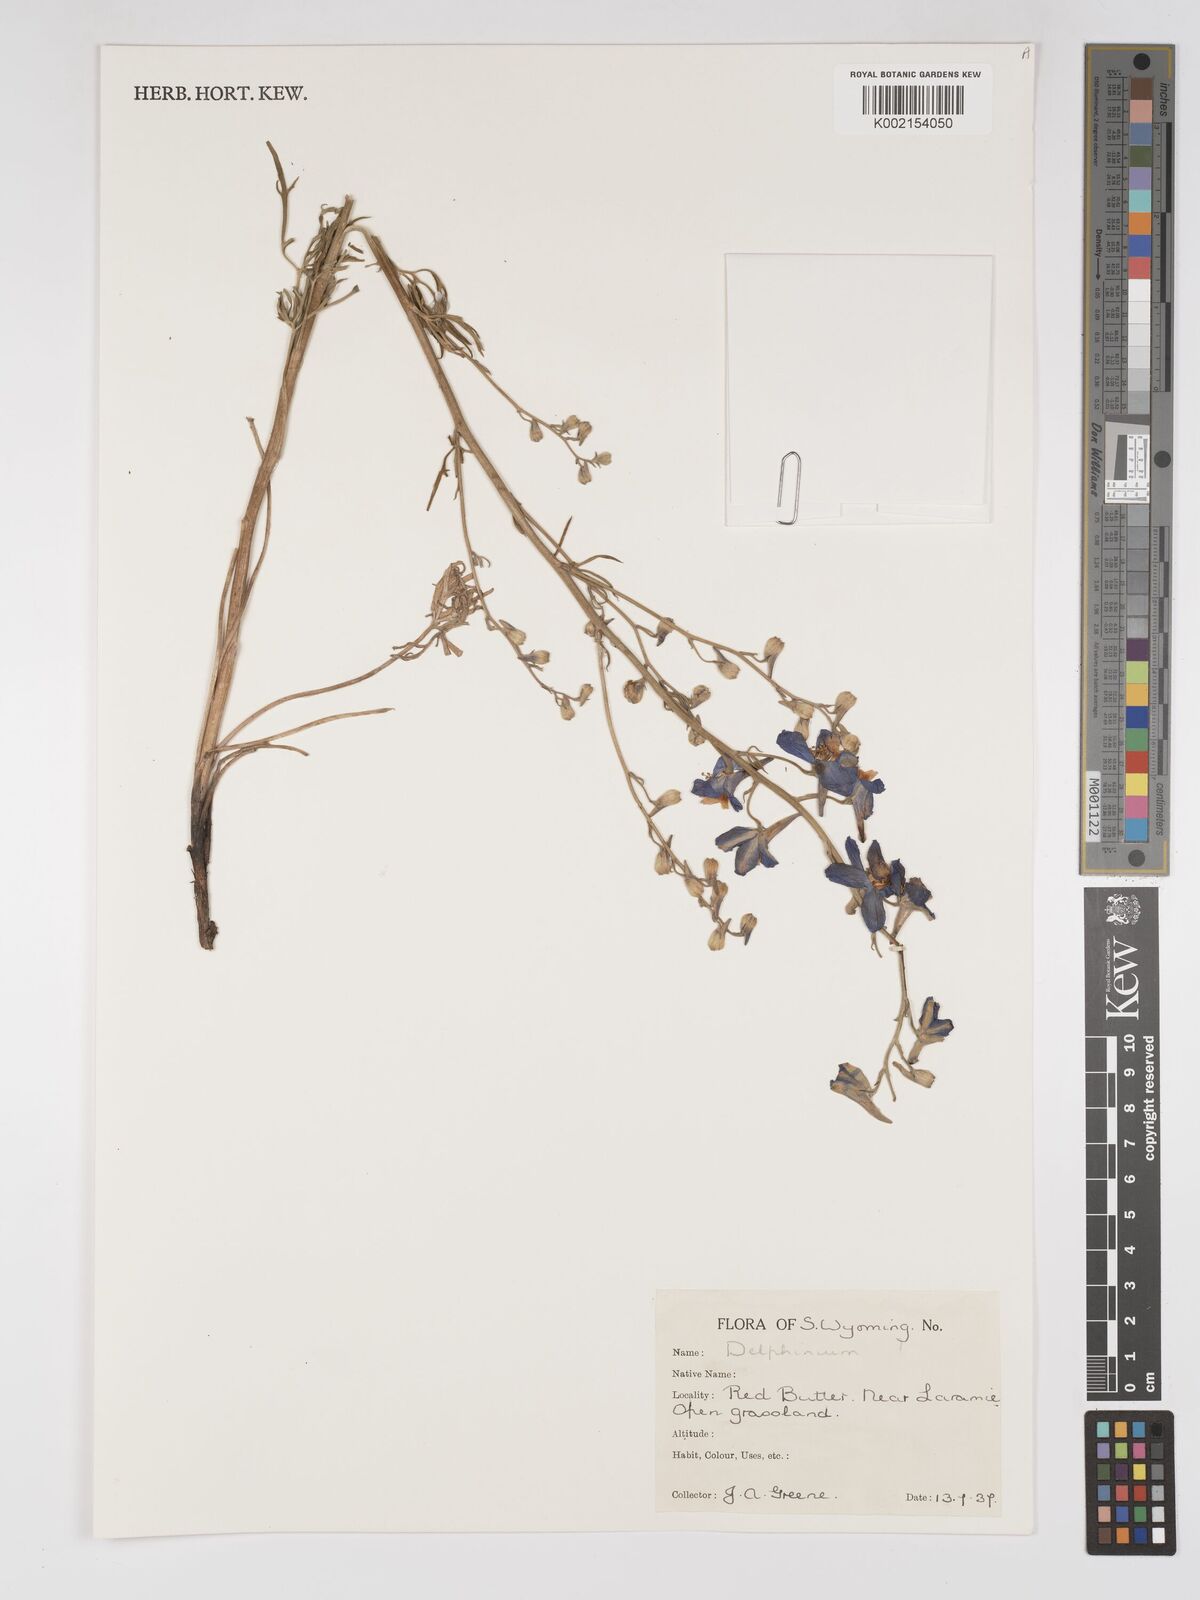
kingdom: Plantae
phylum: Tracheophyta
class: Magnoliopsida
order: Ranunculales
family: Ranunculaceae
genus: Delphinium
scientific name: Delphinium
